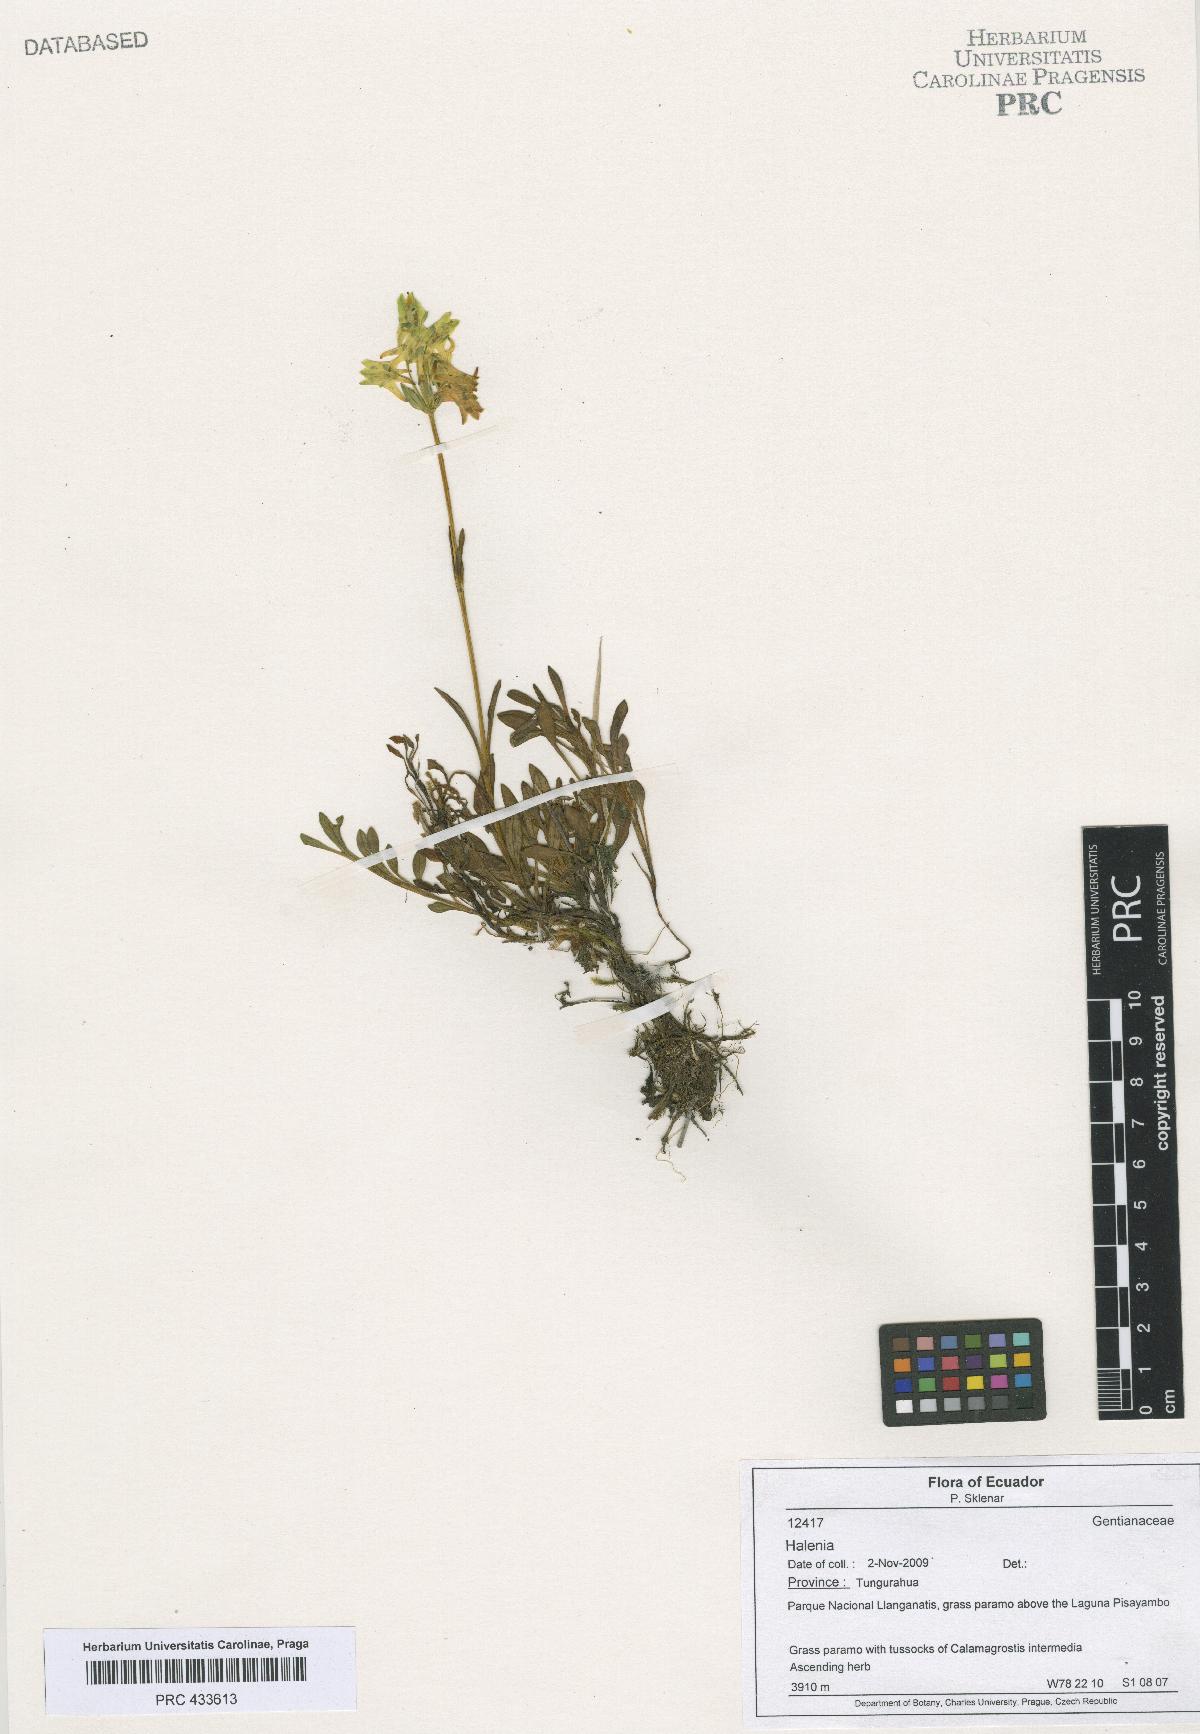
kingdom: Plantae
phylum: Tracheophyta
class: Magnoliopsida
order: Gentianales
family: Gentianaceae
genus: Halenia
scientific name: Halenia
